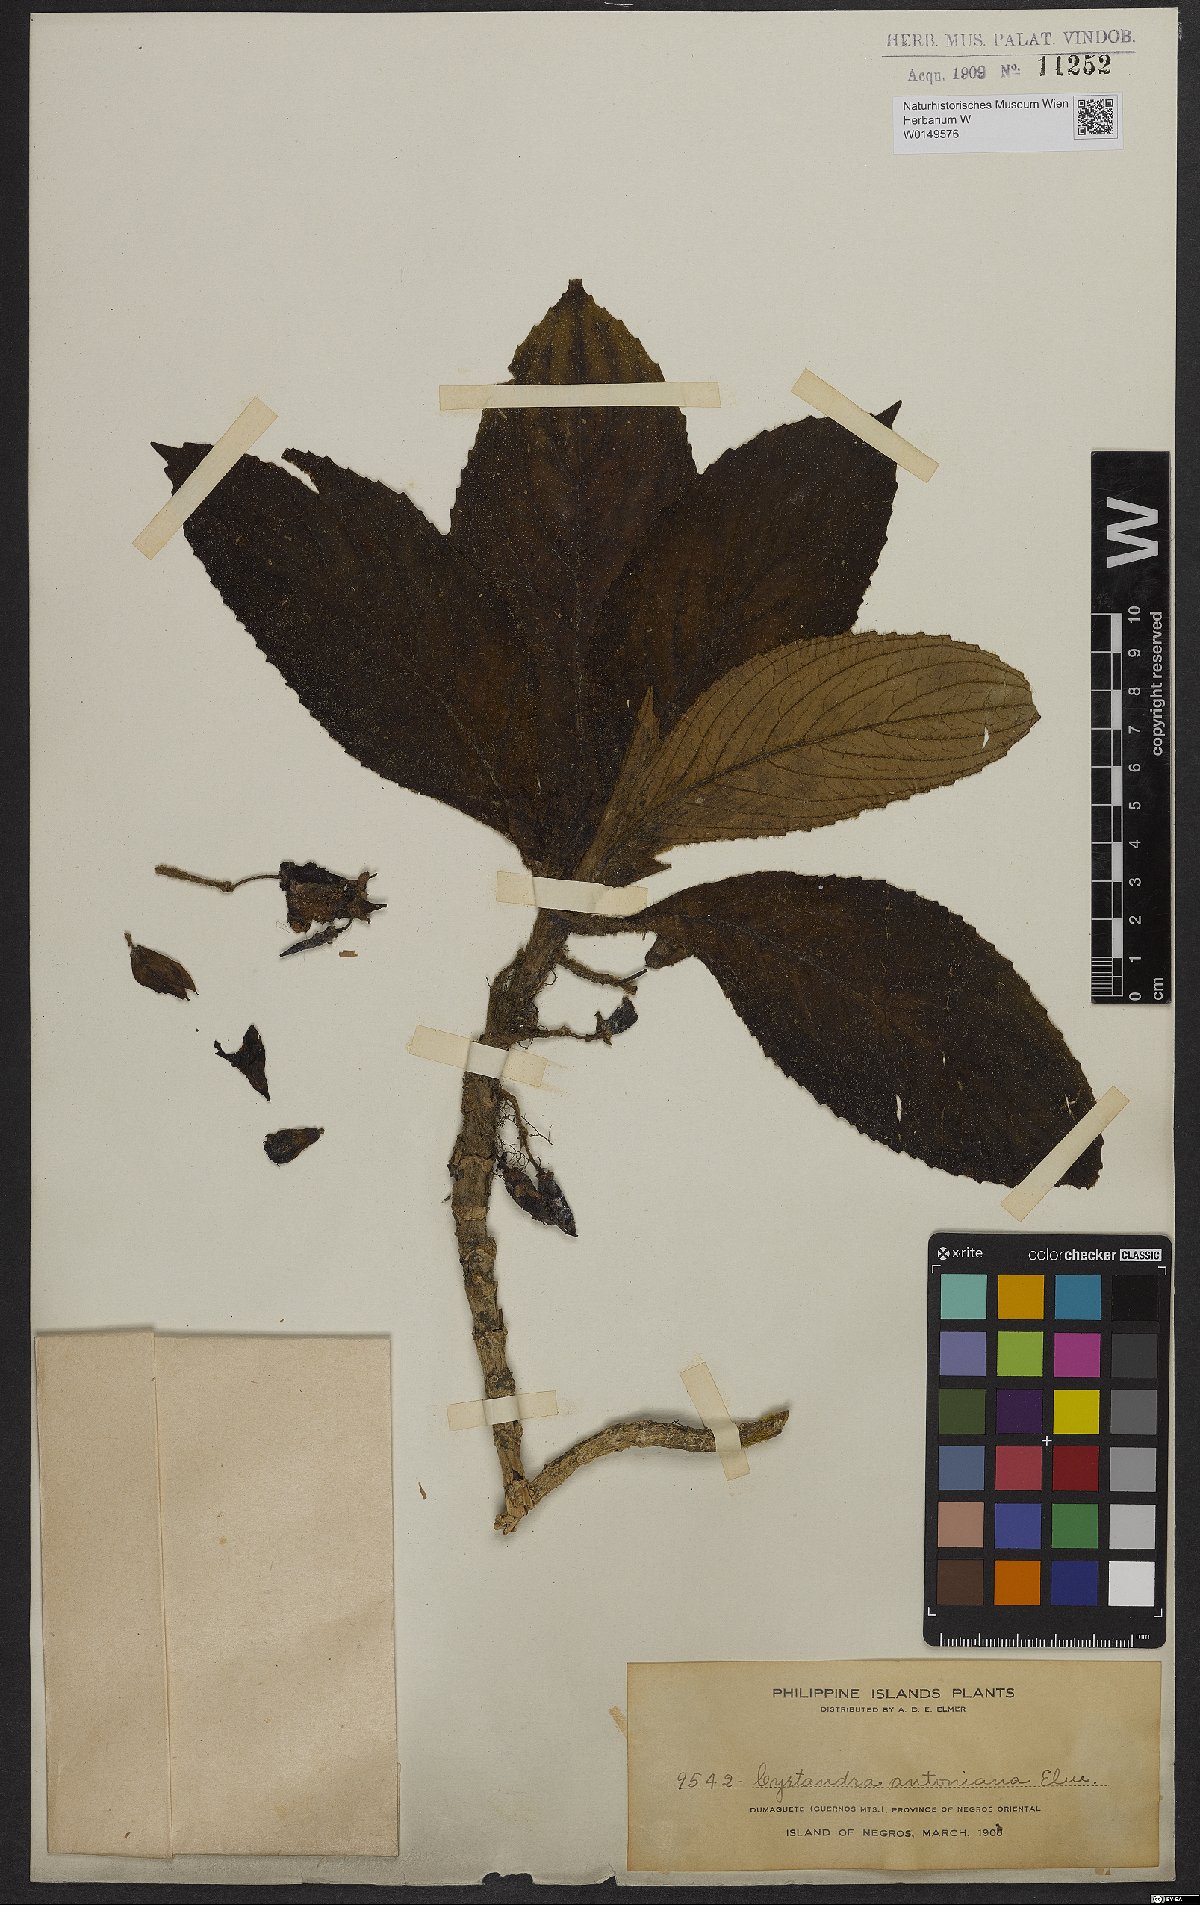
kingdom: Plantae
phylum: Tracheophyta
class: Magnoliopsida
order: Lamiales
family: Gesneriaceae
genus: Cyrtandra
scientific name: Cyrtandra antoniana
